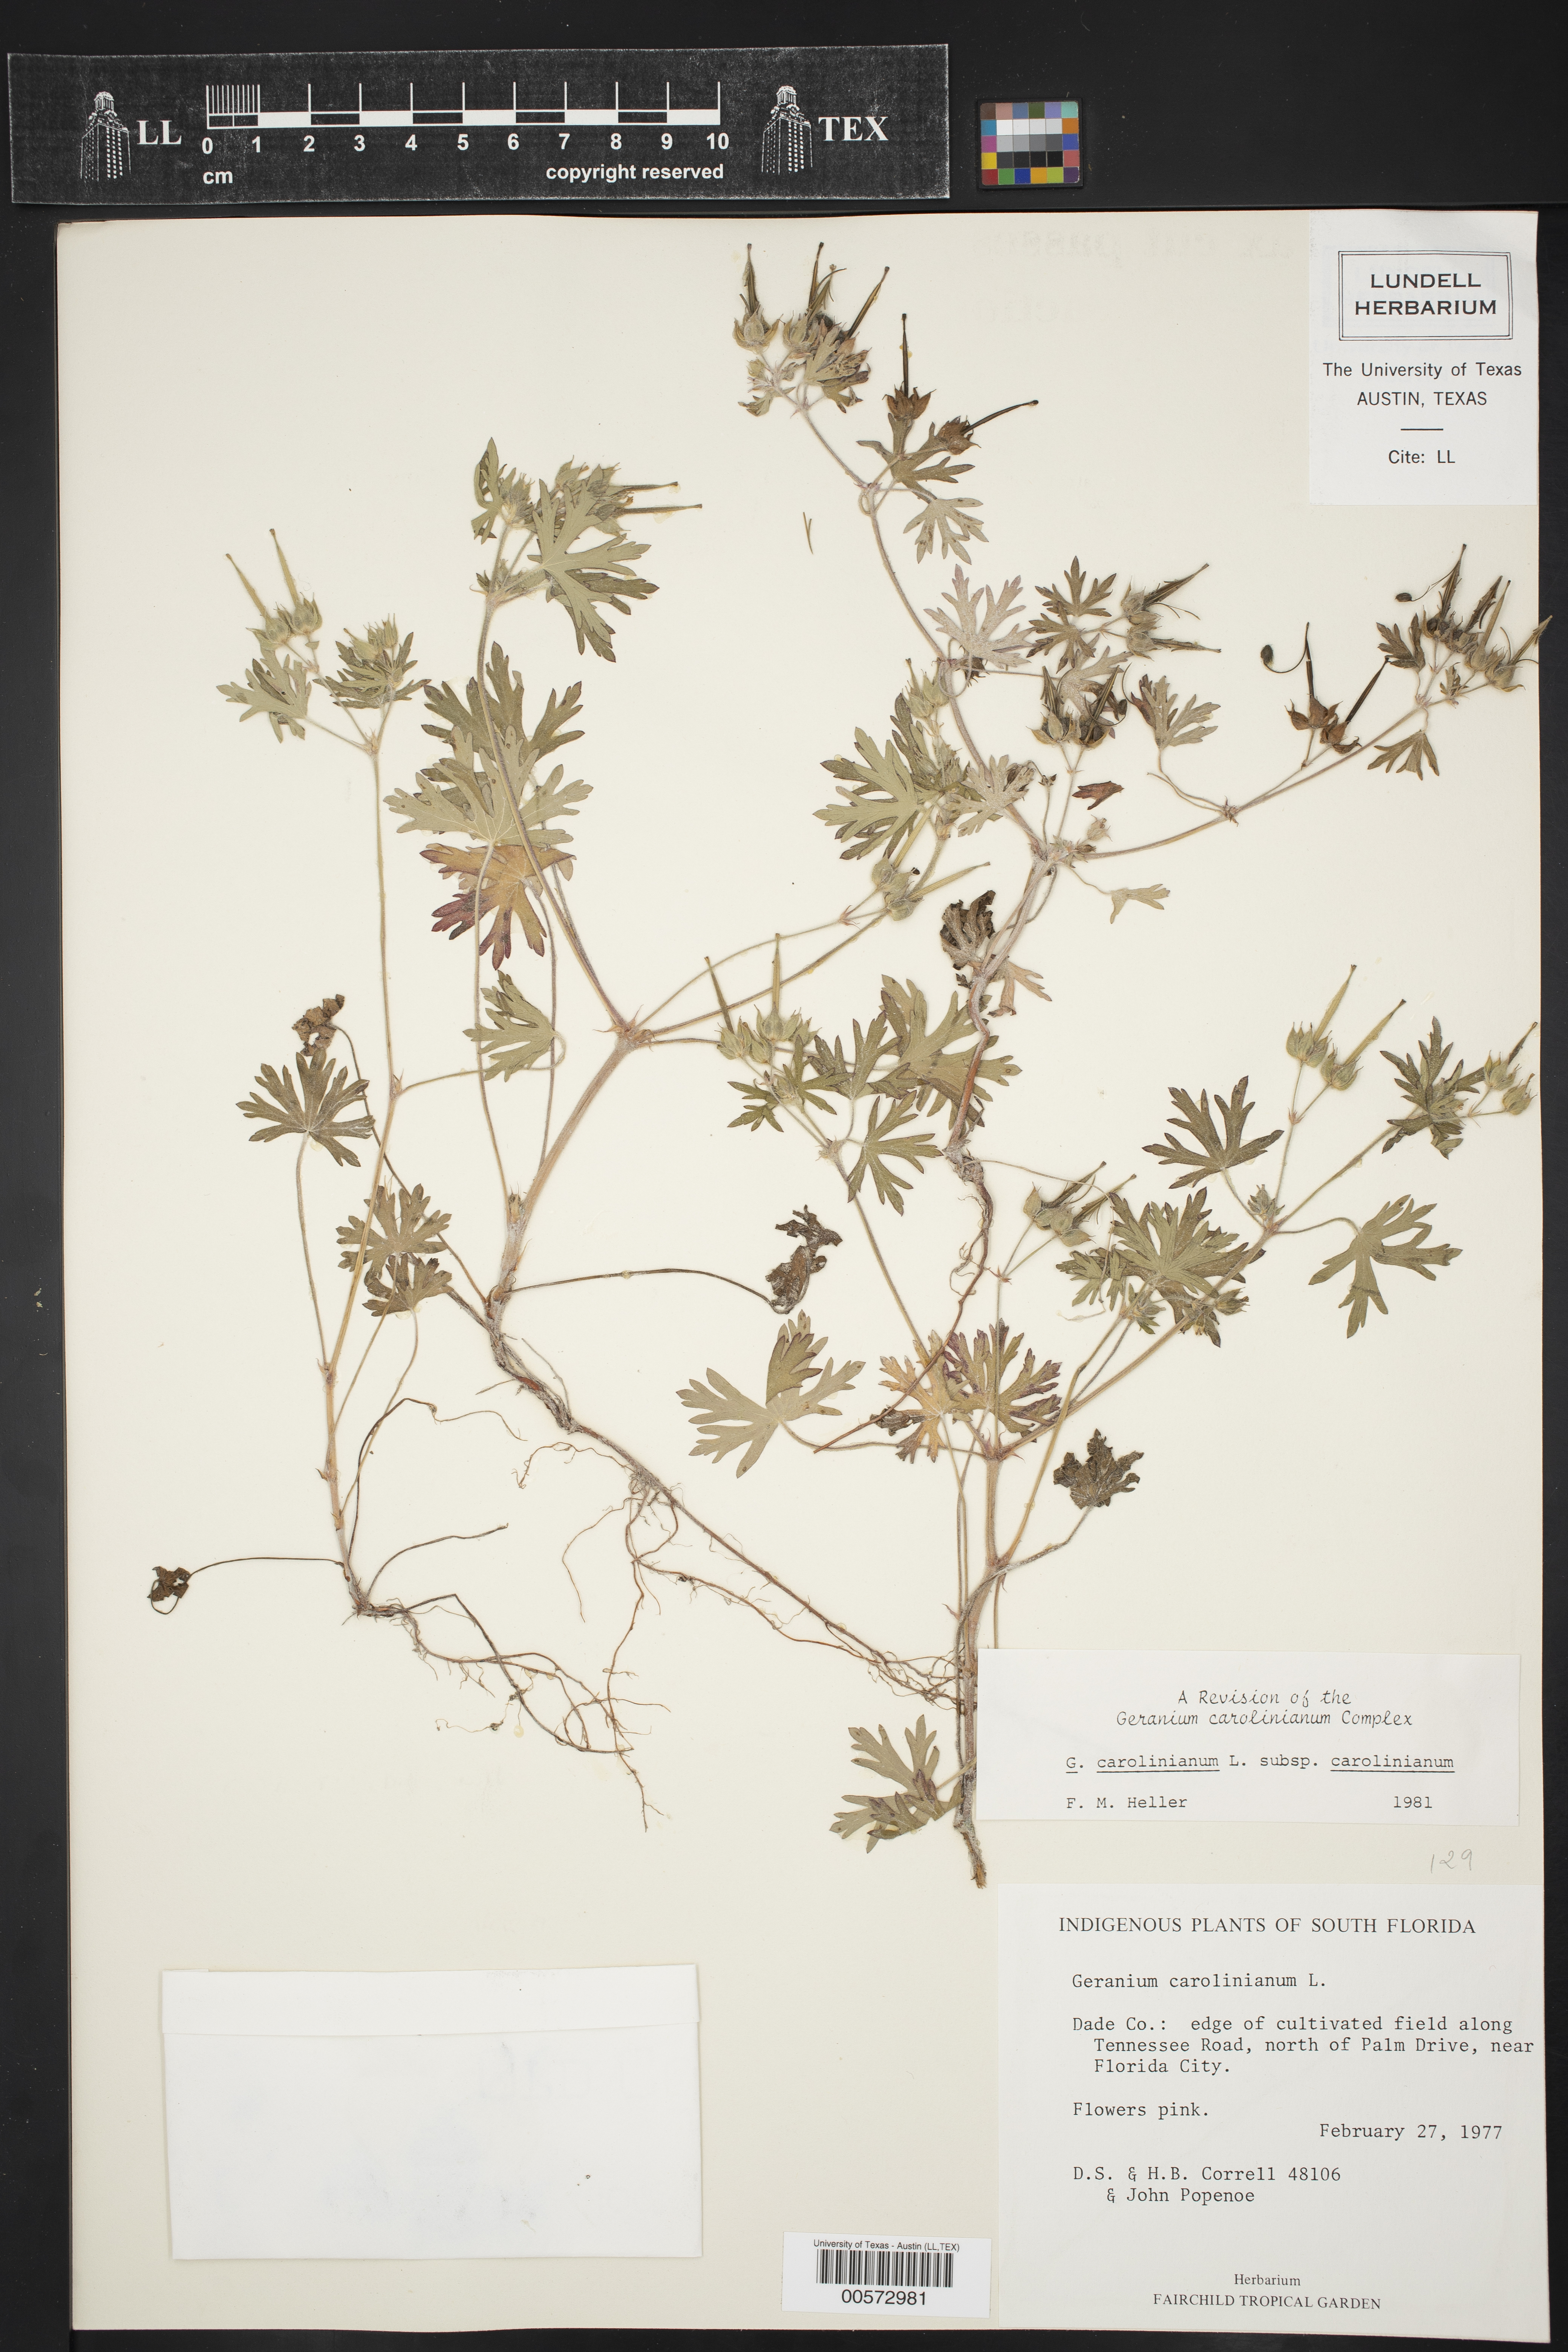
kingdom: Plantae
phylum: Tracheophyta
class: Magnoliopsida
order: Geraniales
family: Geraniaceae
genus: Geranium
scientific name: Geranium carolinianum
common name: Carolina crane's-bill
